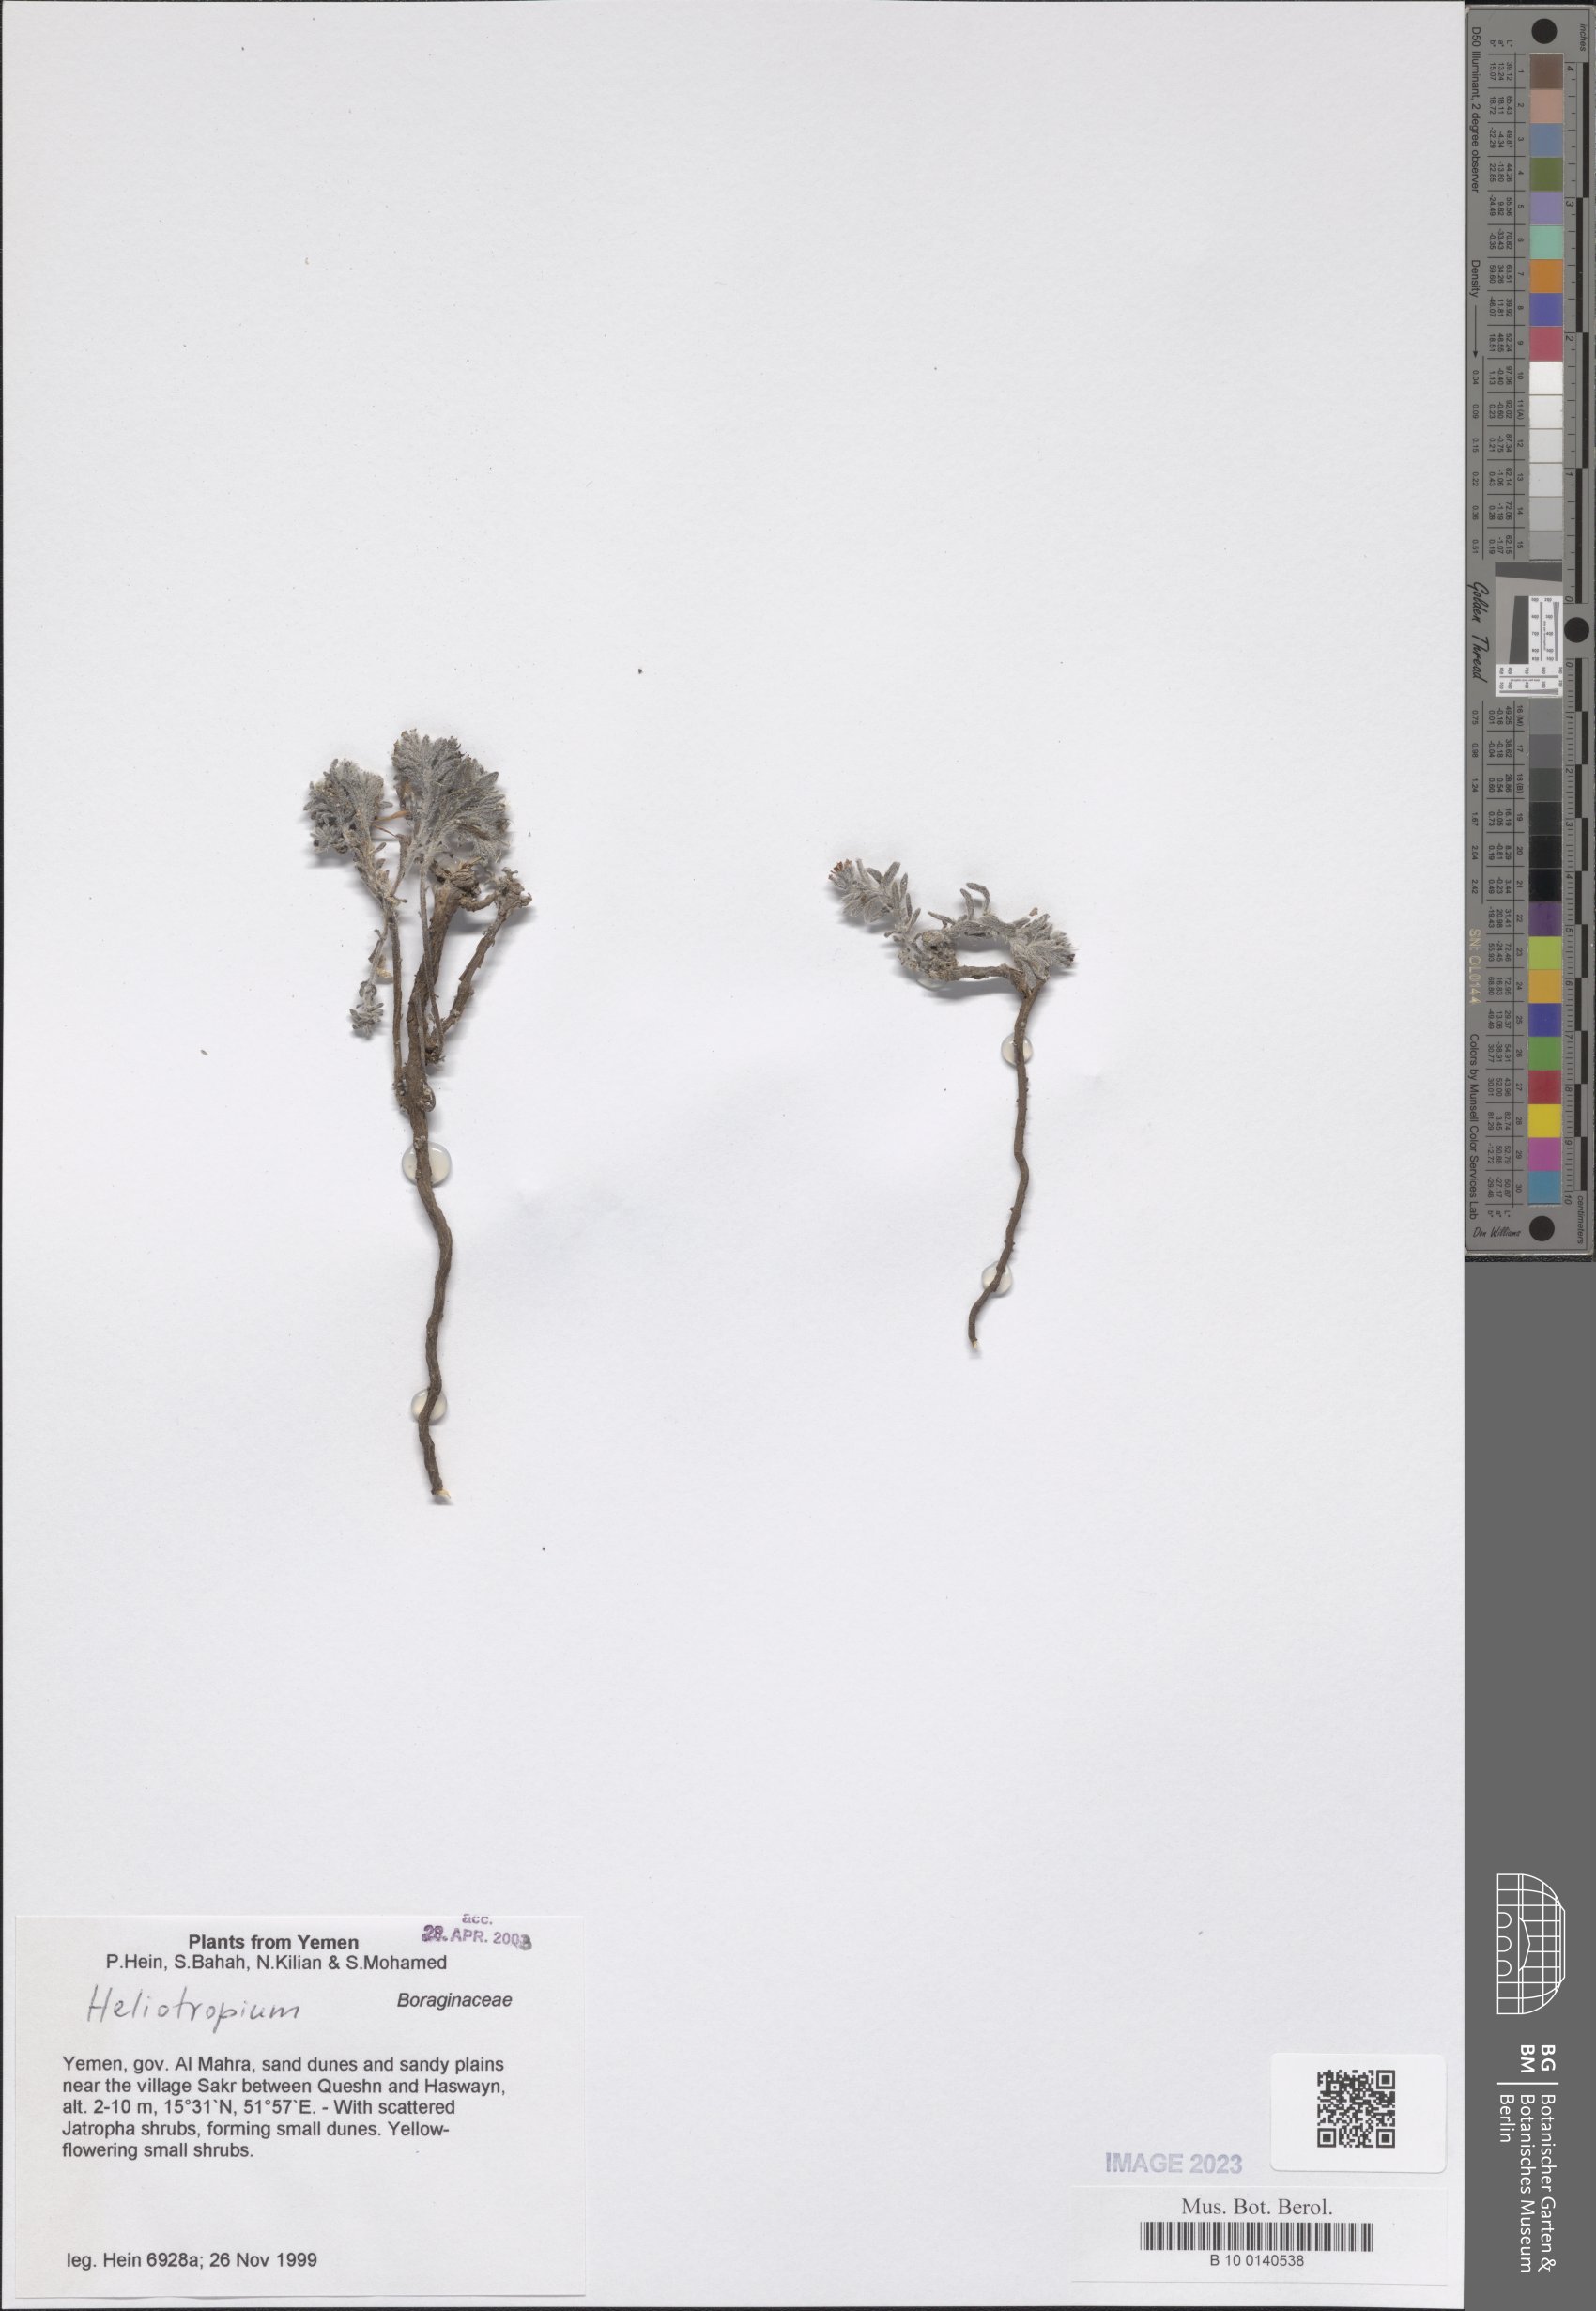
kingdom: Plantae
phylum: Tracheophyta
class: Magnoliopsida
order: Boraginales
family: Heliotropiaceae
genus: Heliotropium
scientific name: Heliotropium
